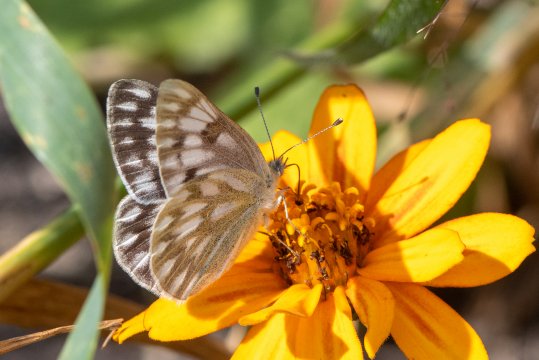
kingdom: Animalia
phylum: Arthropoda
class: Insecta
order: Lepidoptera
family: Pieridae
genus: Pontia
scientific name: Pontia occidentalis
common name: Western White
